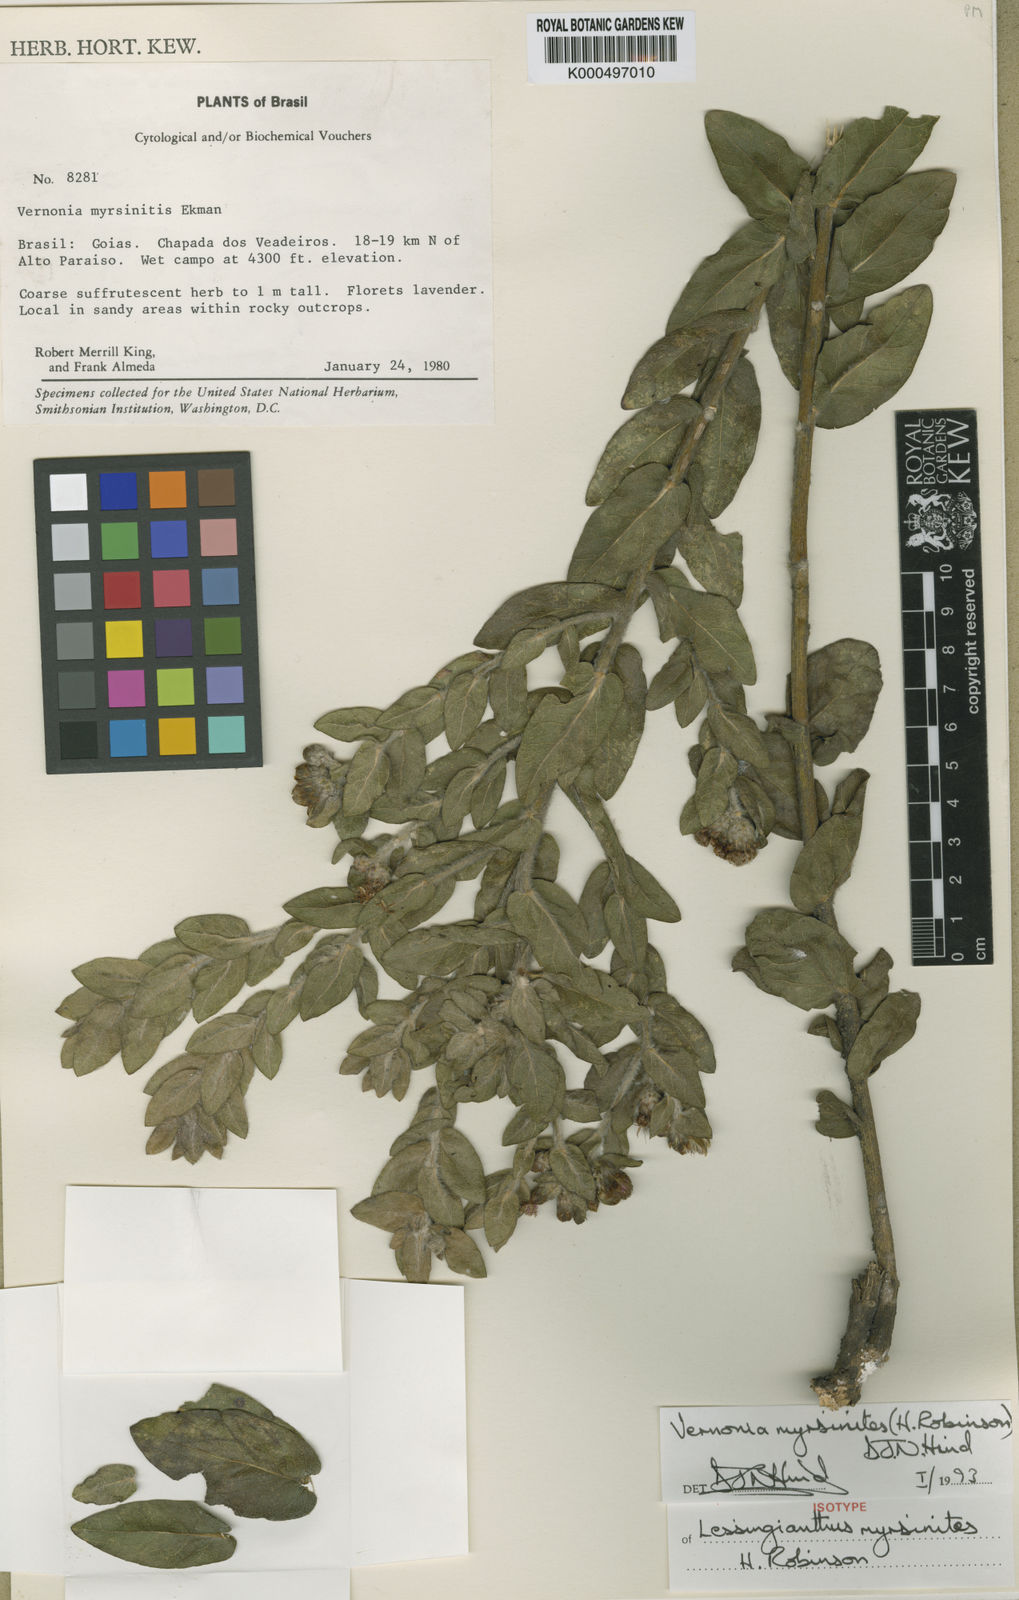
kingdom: Plantae
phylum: Tracheophyta
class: Magnoliopsida
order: Asterales
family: Asteraceae
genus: Lessingianthus
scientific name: Lessingianthus myrsinites
